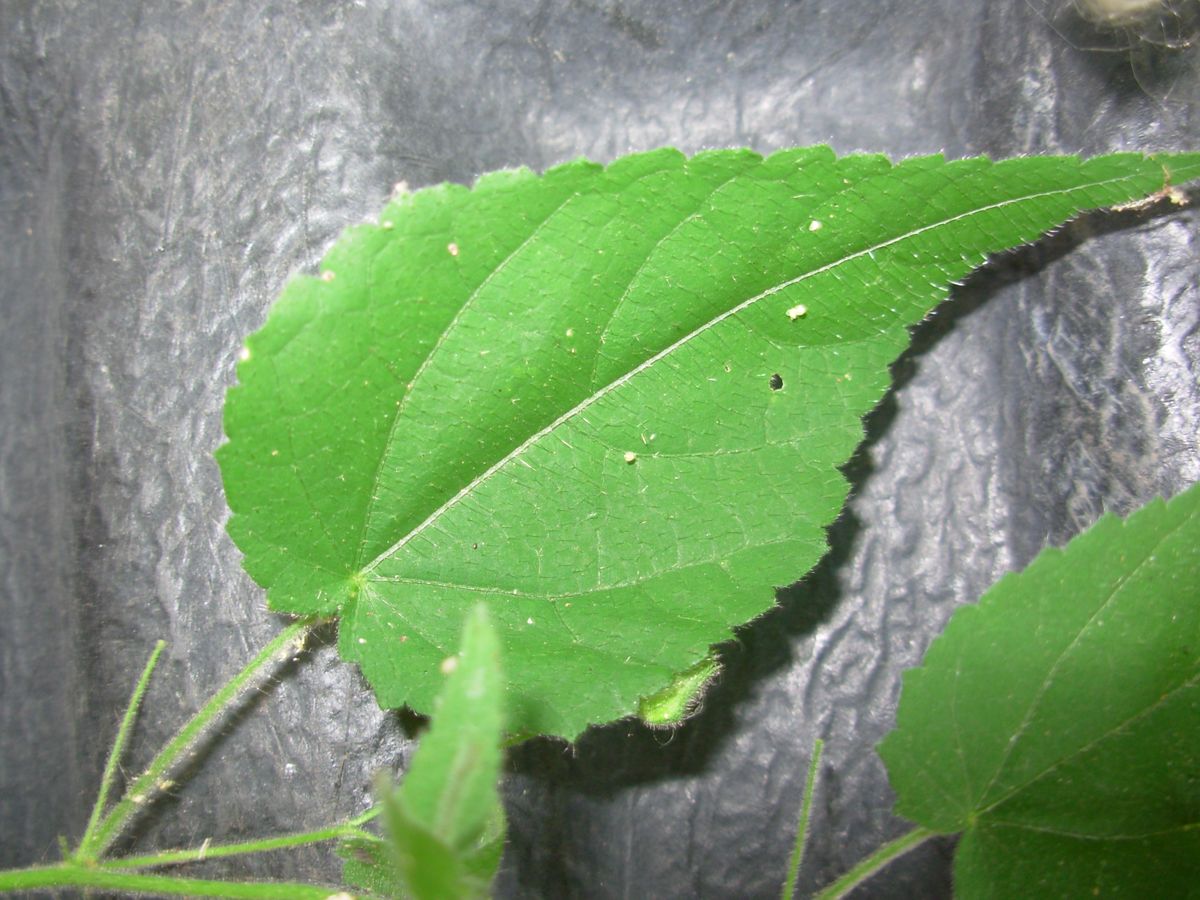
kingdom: Plantae
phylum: Tracheophyta
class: Magnoliopsida
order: Malvales
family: Malvaceae
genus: Sida
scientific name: Sida
